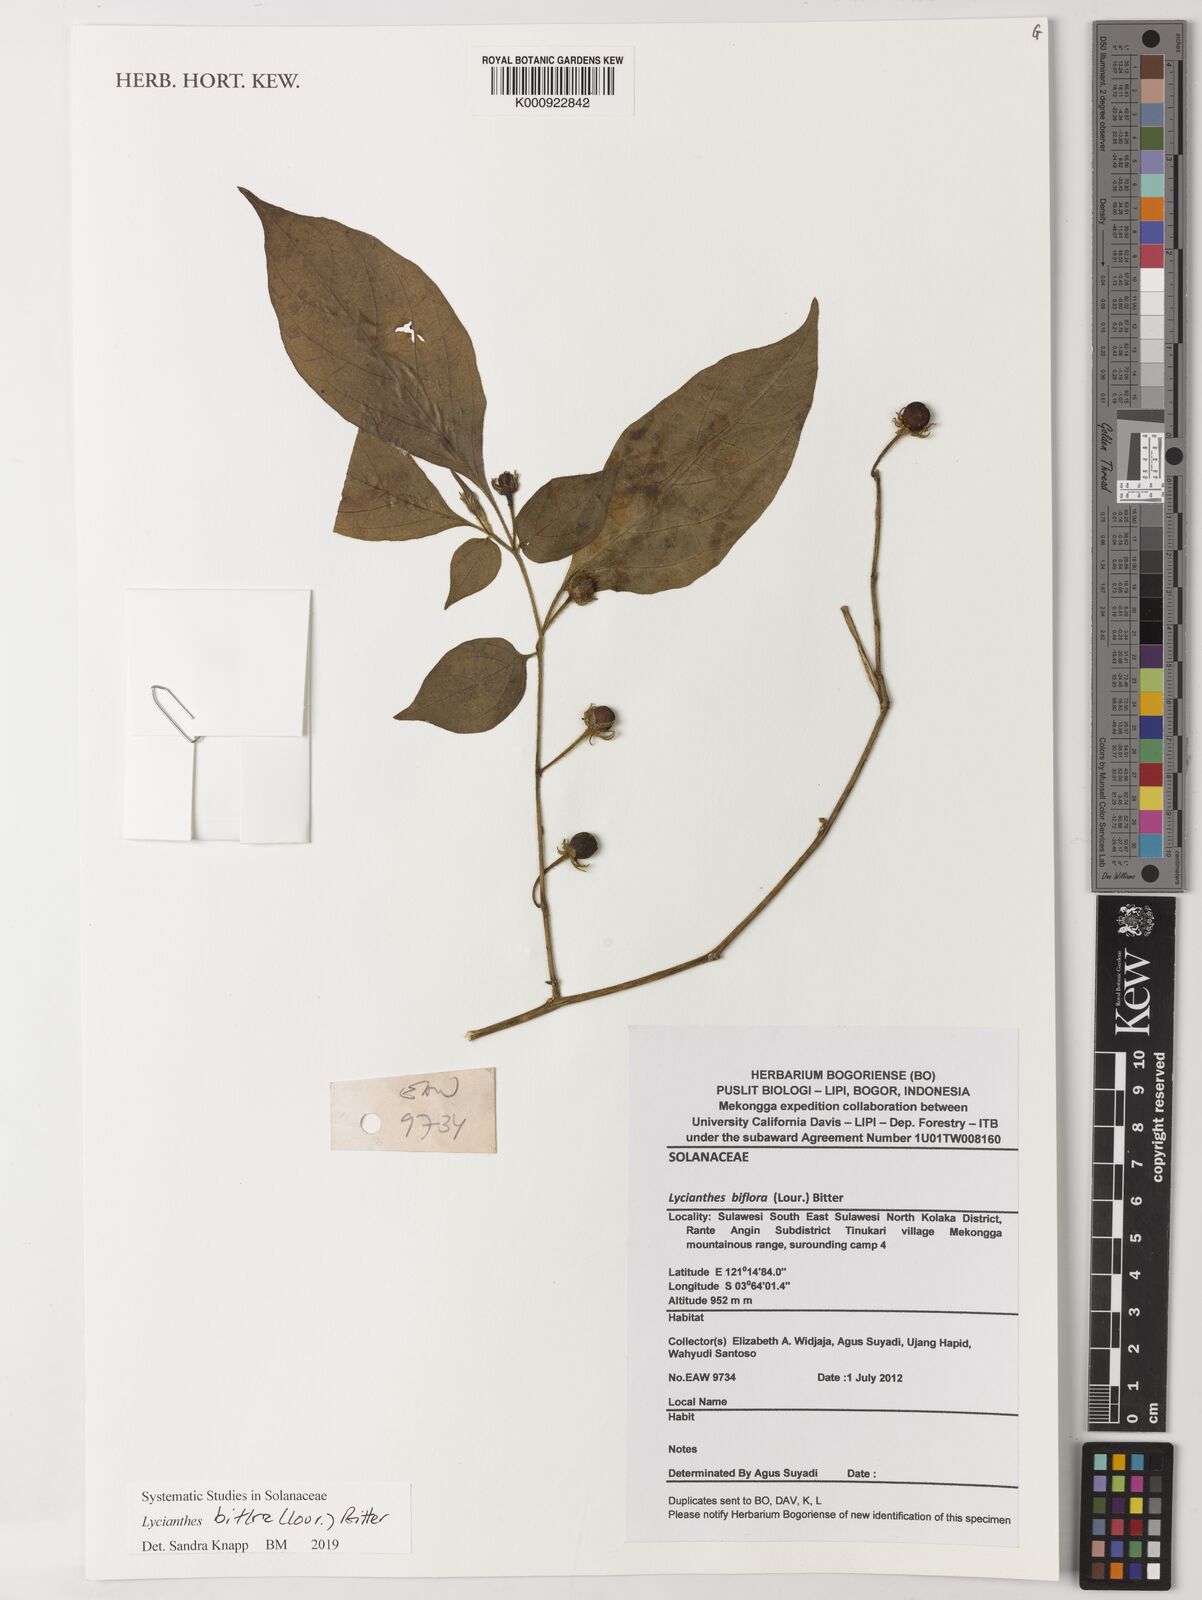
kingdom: Plantae
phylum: Tracheophyta
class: Magnoliopsida
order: Solanales
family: Solanaceae
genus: Lycianthes
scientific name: Lycianthes biflora
